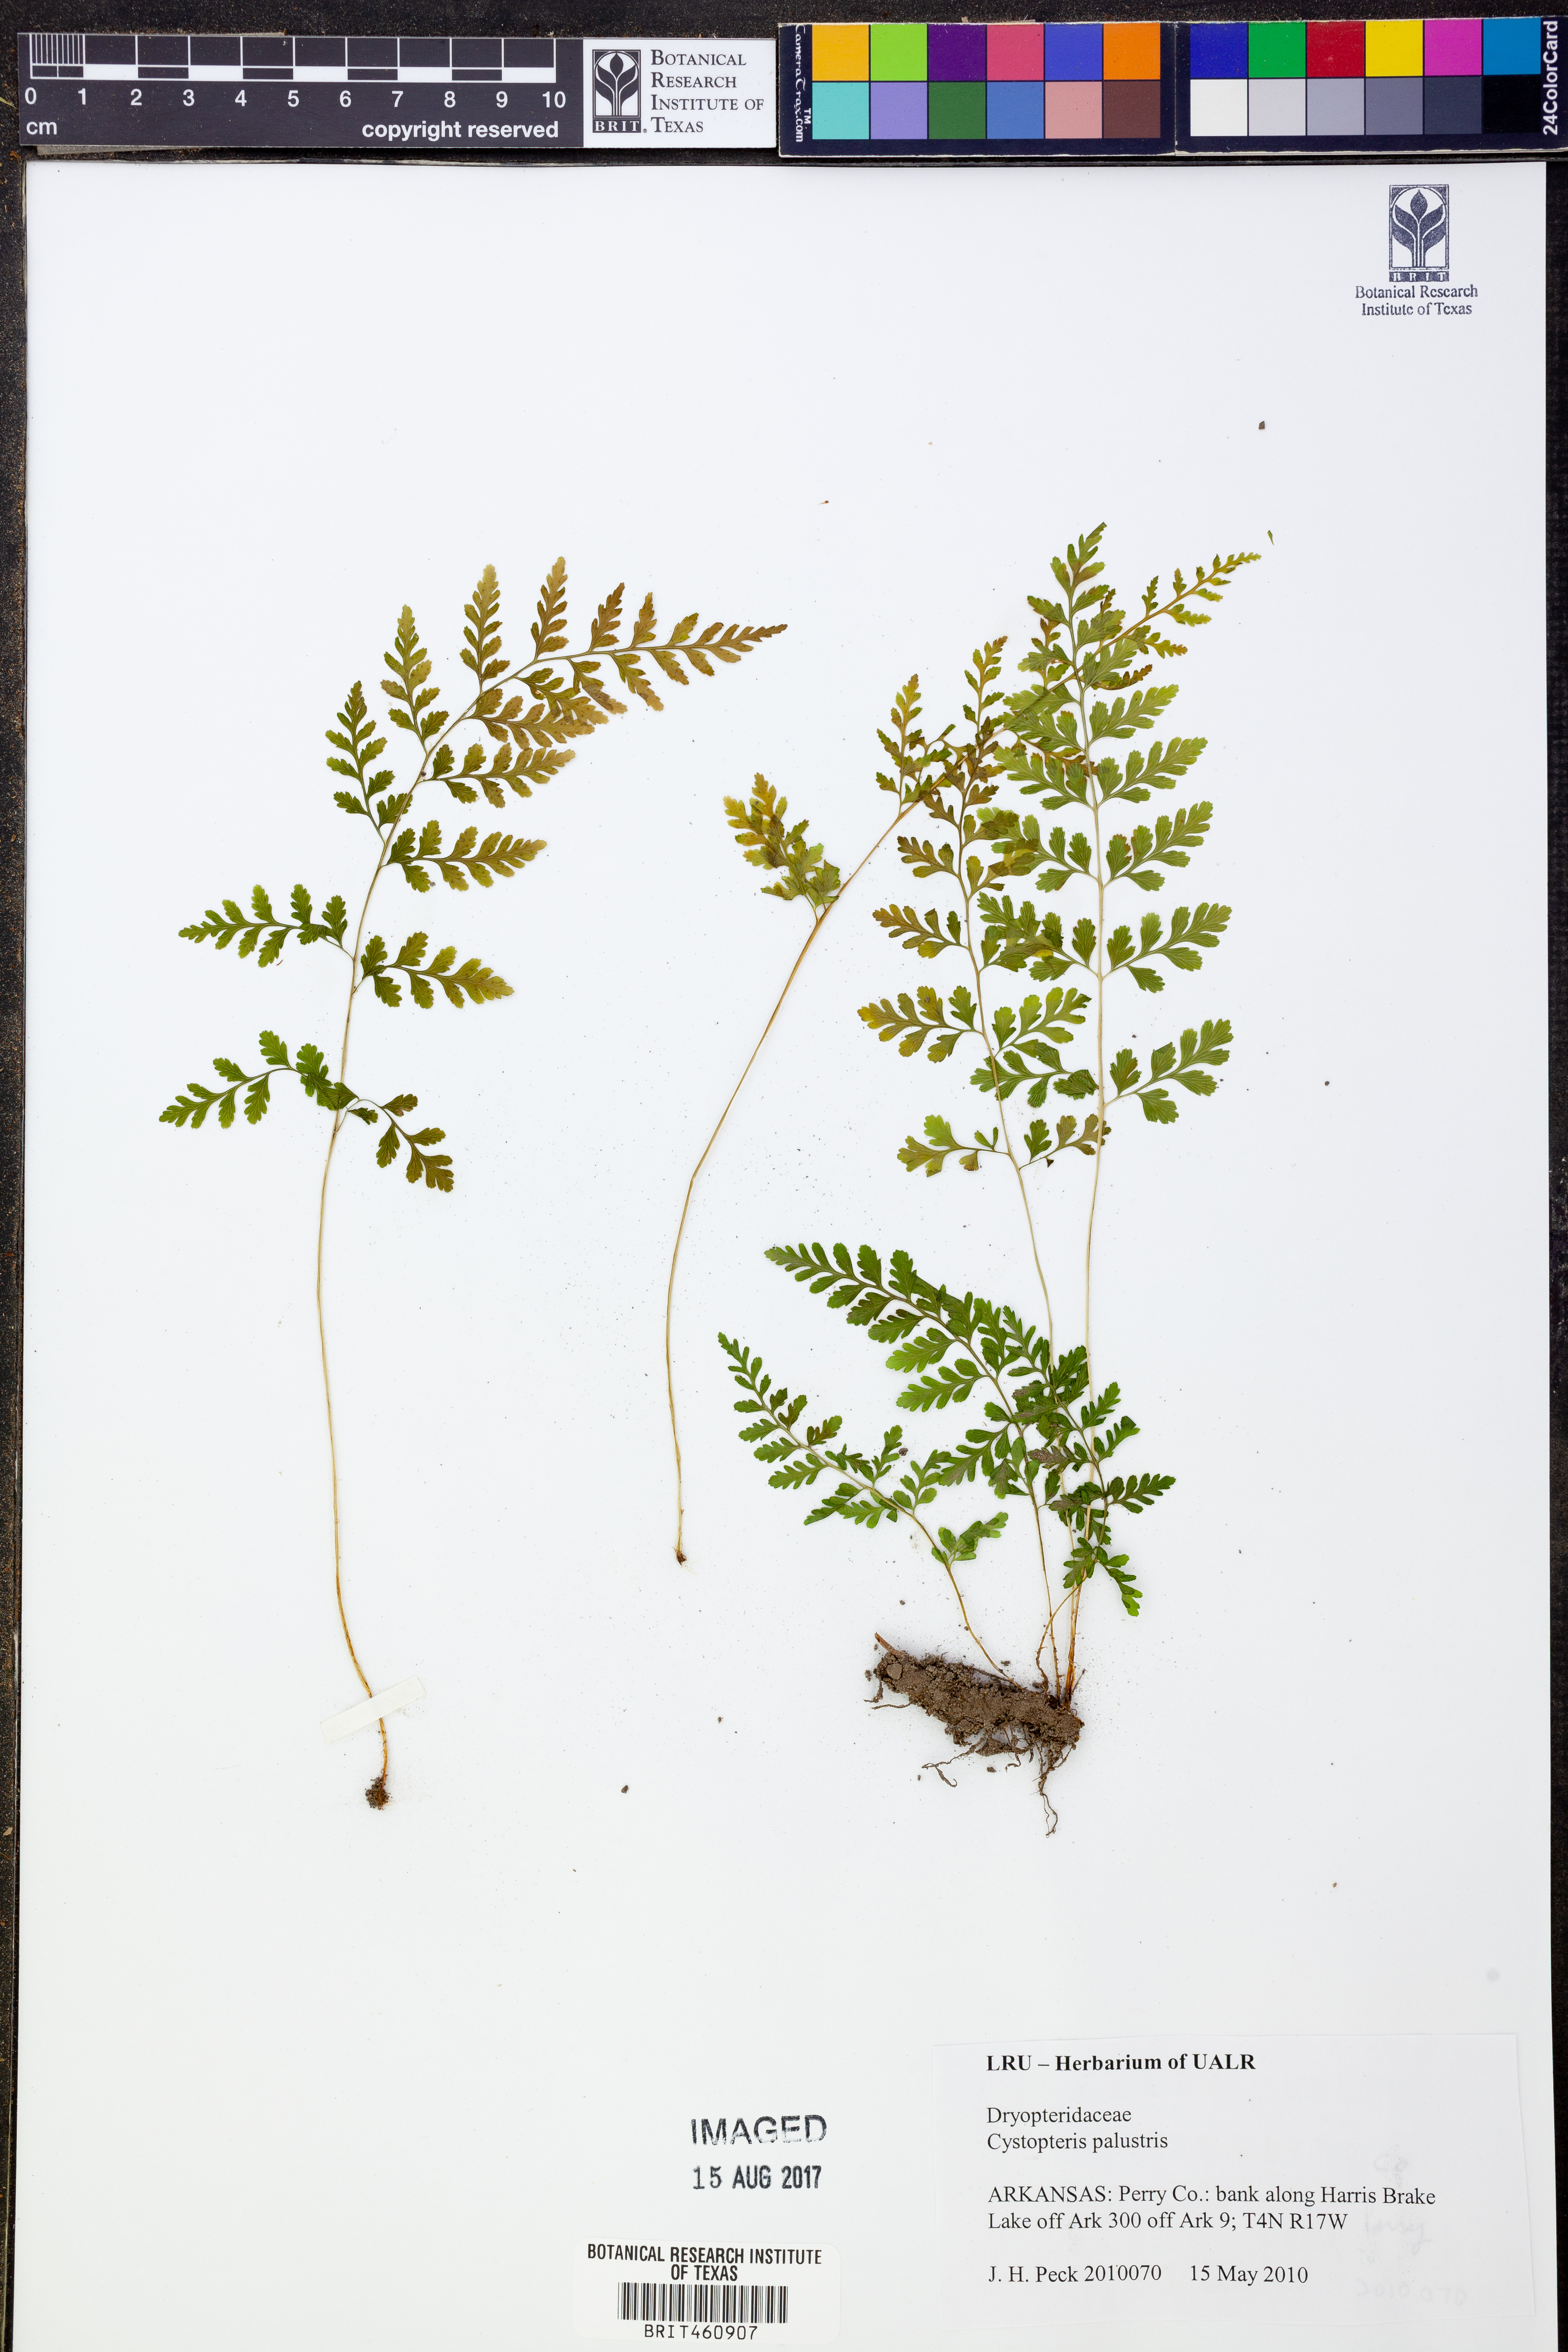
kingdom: Plantae
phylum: Tracheophyta
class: Polypodiopsida
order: Polypodiales
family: Cystopteridaceae
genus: Cystopteris
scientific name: Cystopteris
